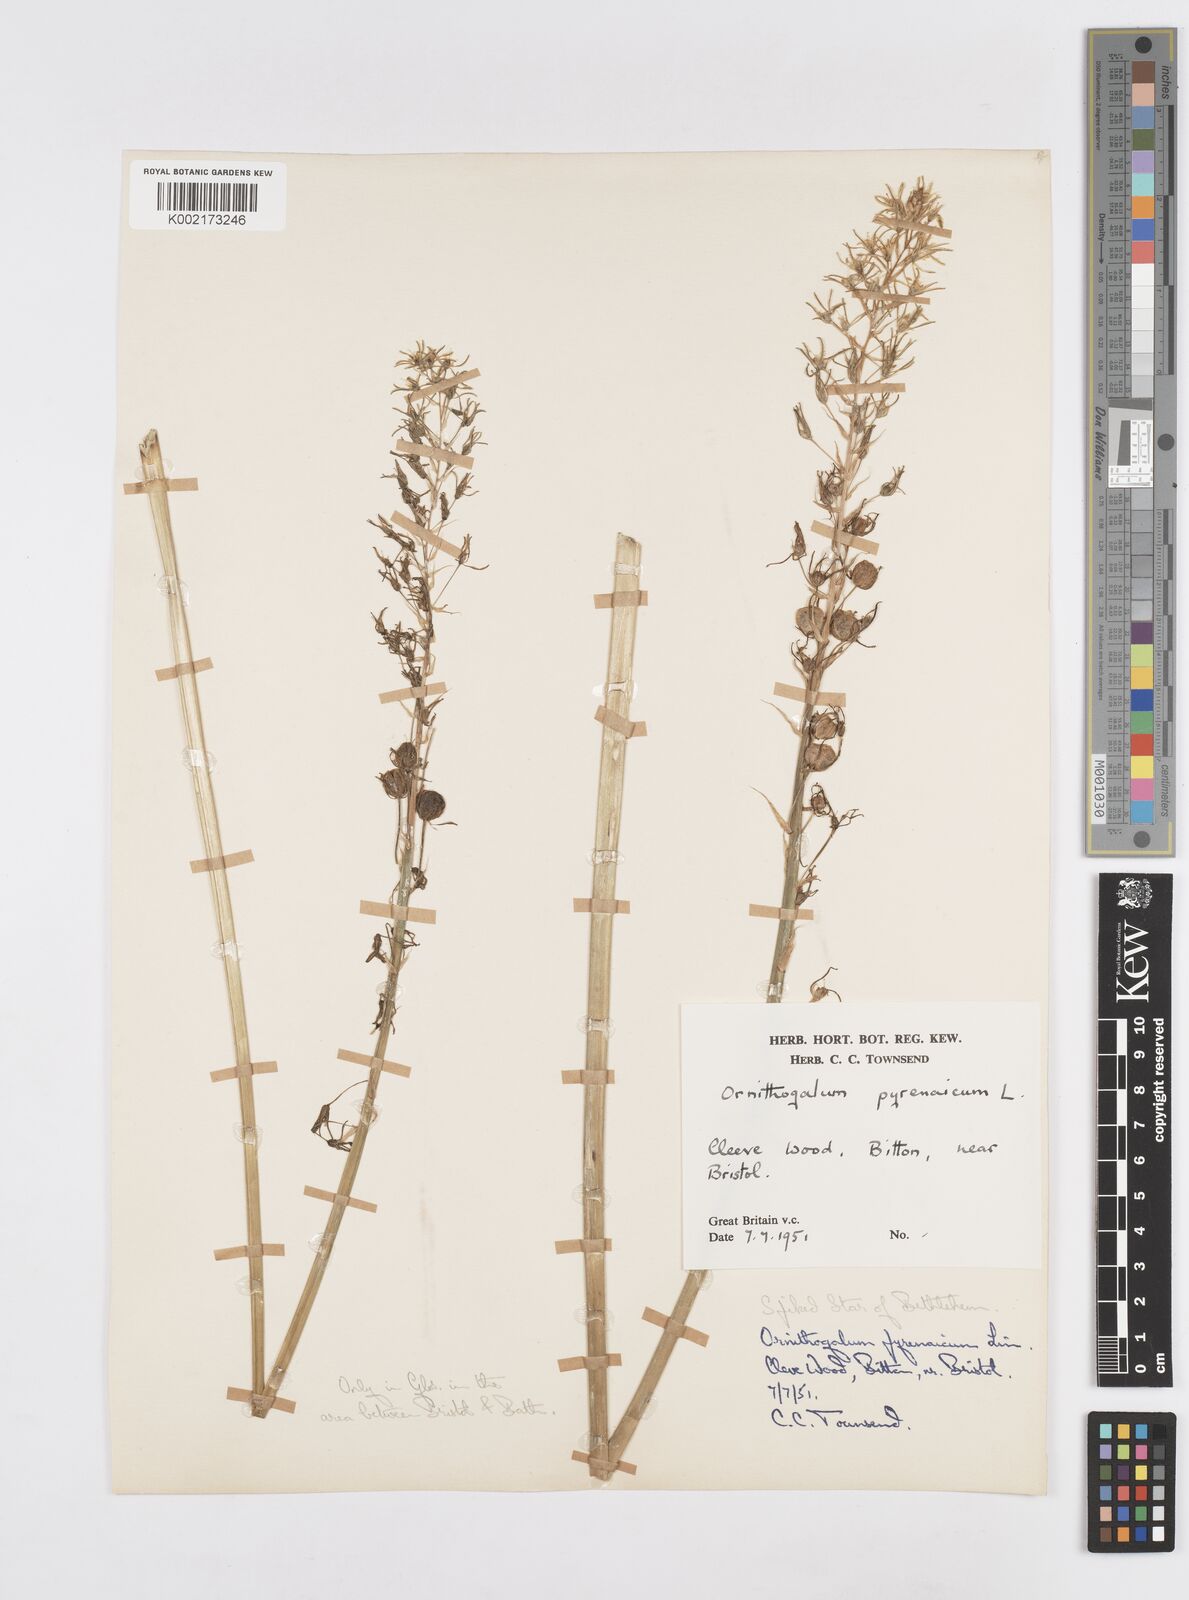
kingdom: Plantae
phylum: Tracheophyta
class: Liliopsida
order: Asparagales
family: Asparagaceae
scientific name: Asparagaceae
